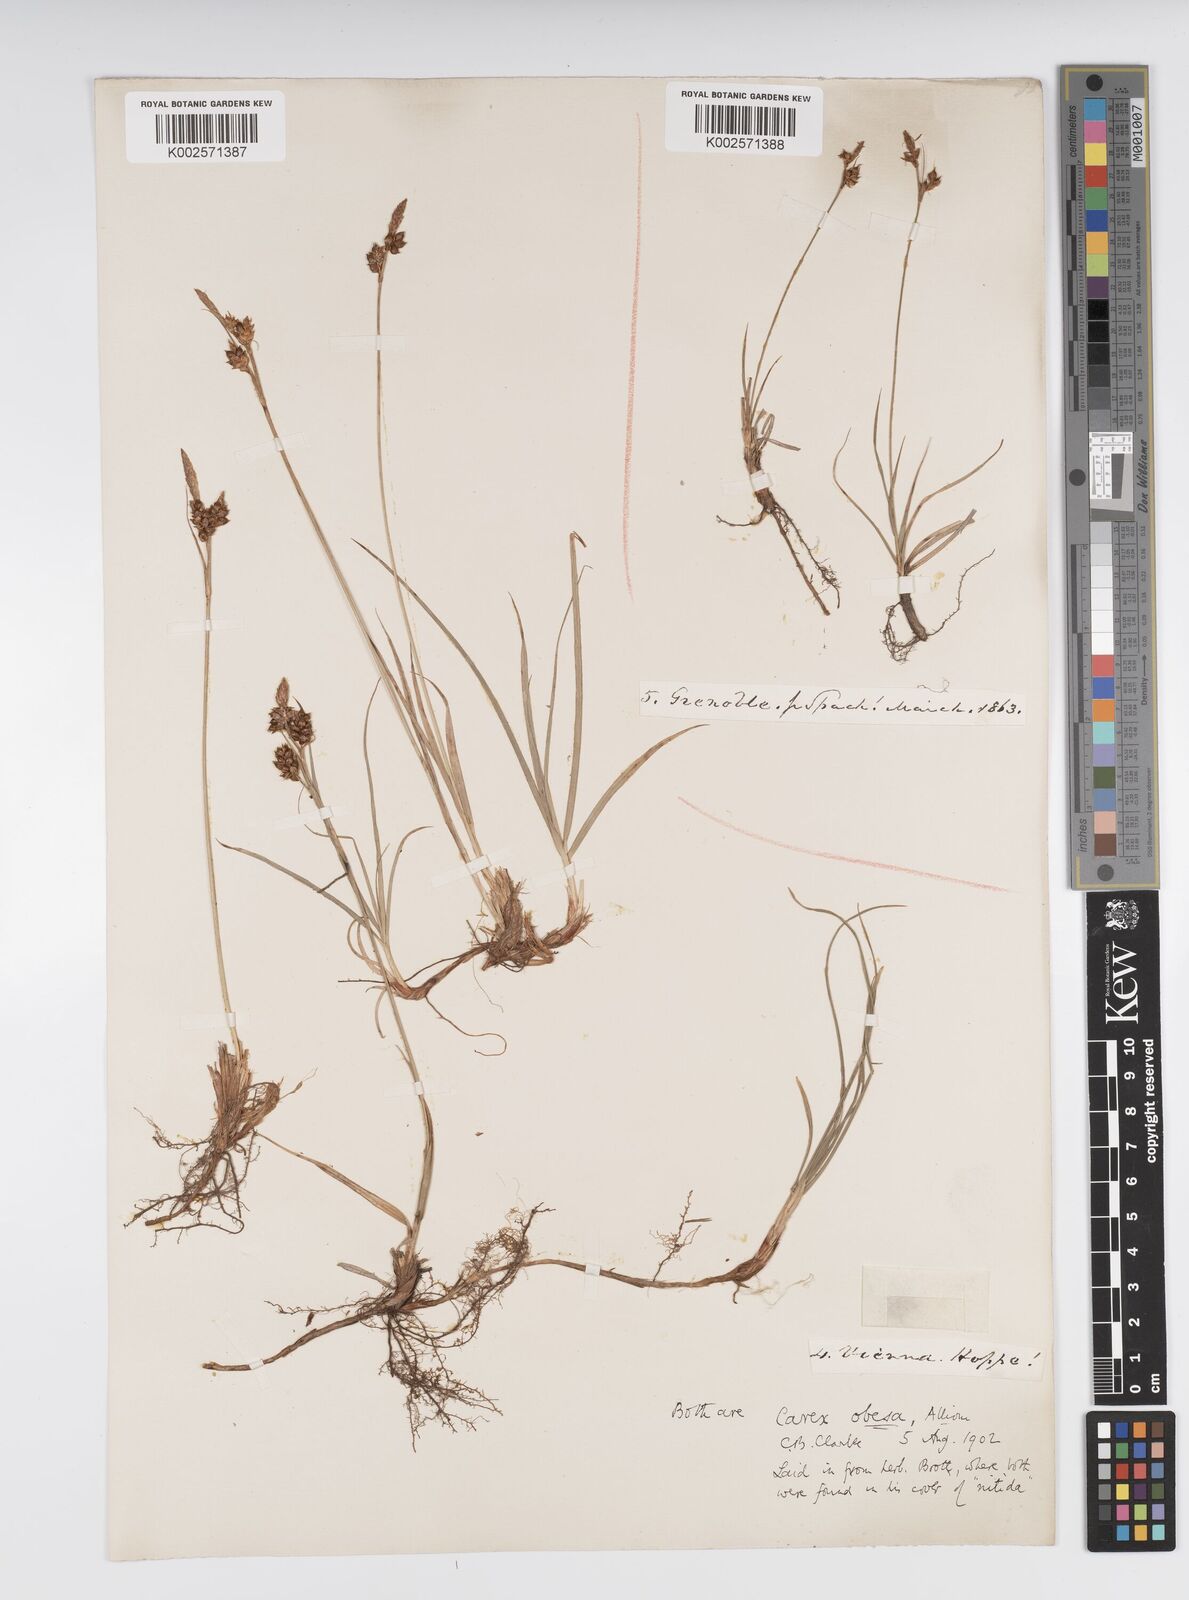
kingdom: Plantae
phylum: Tracheophyta
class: Liliopsida
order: Poales
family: Cyperaceae
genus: Carex
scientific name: Carex liparocarpos
